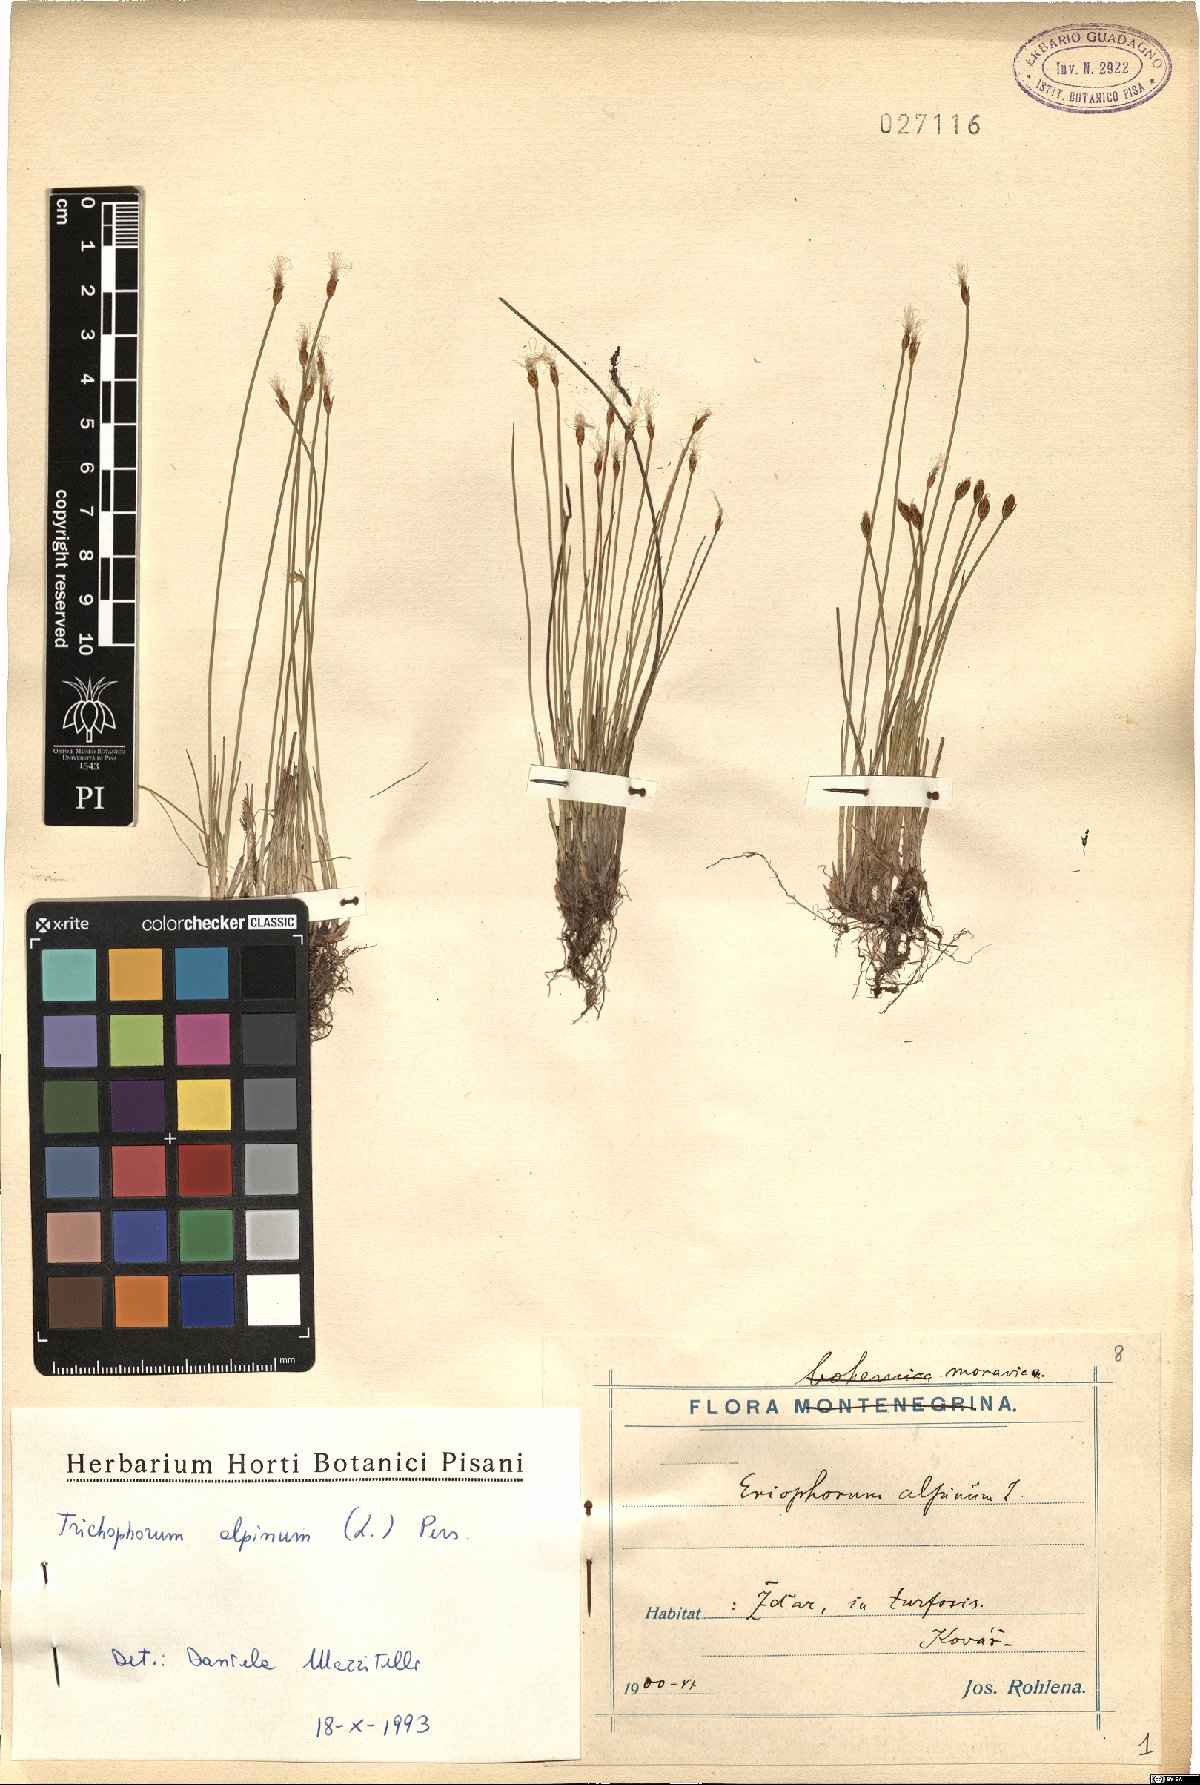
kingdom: Plantae
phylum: Tracheophyta
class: Liliopsida
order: Poales
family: Cyperaceae
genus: Trichophorum
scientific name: Trichophorum alpinum
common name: Alpine bulrush
